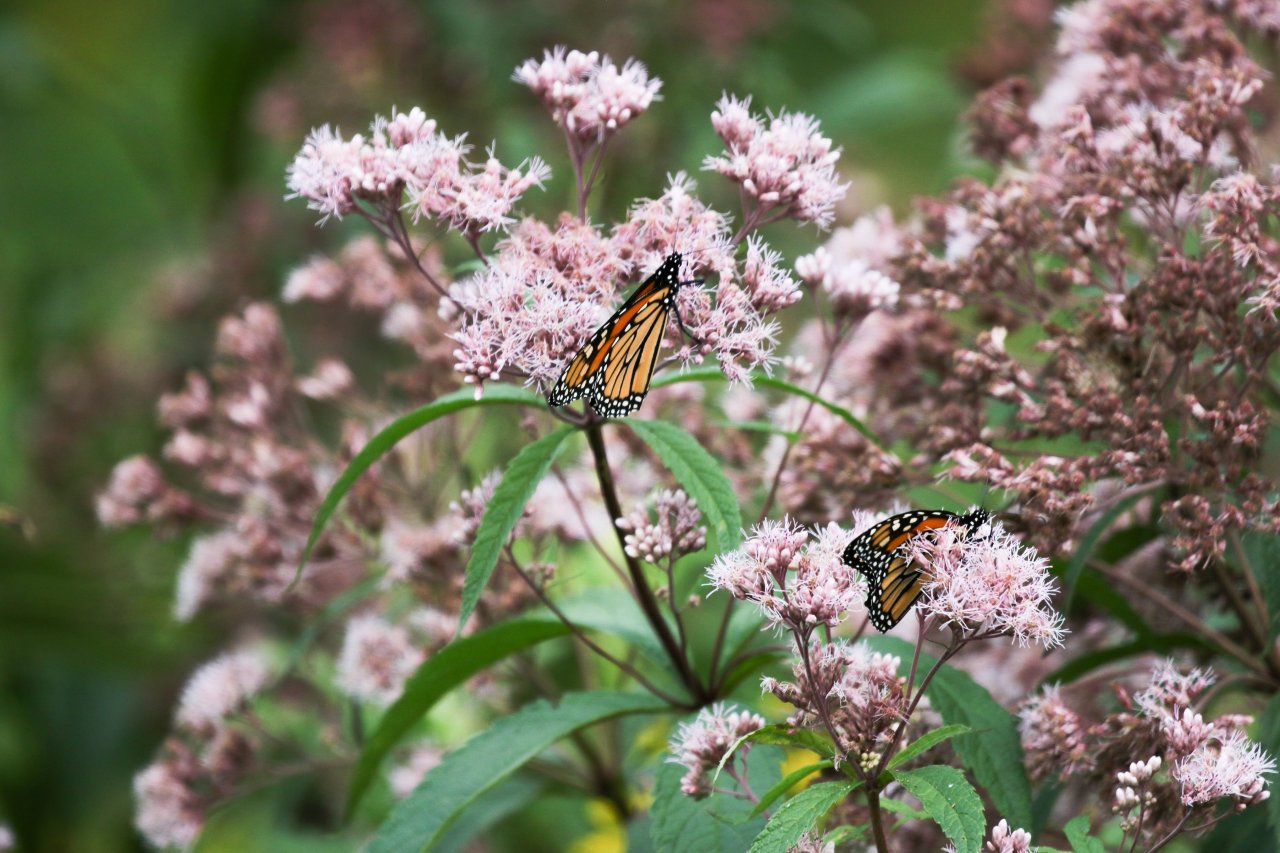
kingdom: Animalia
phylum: Arthropoda
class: Insecta
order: Lepidoptera
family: Nymphalidae
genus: Danaus
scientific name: Danaus plexippus
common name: Monarch
